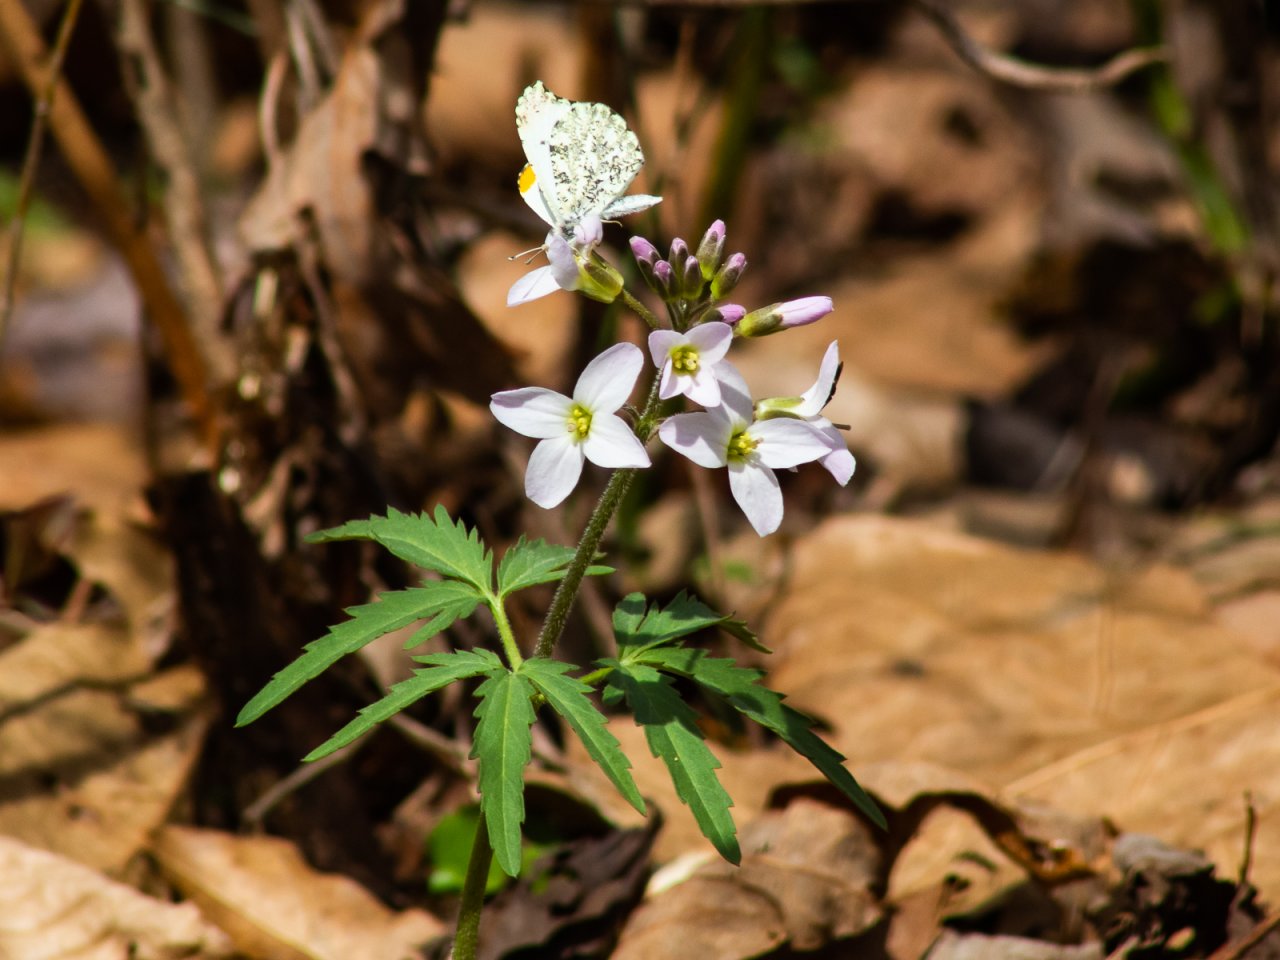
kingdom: Animalia
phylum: Arthropoda
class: Insecta
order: Lepidoptera
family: Pieridae
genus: Anthocharis
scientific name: Anthocharis midea
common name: Falcate Orangetip
